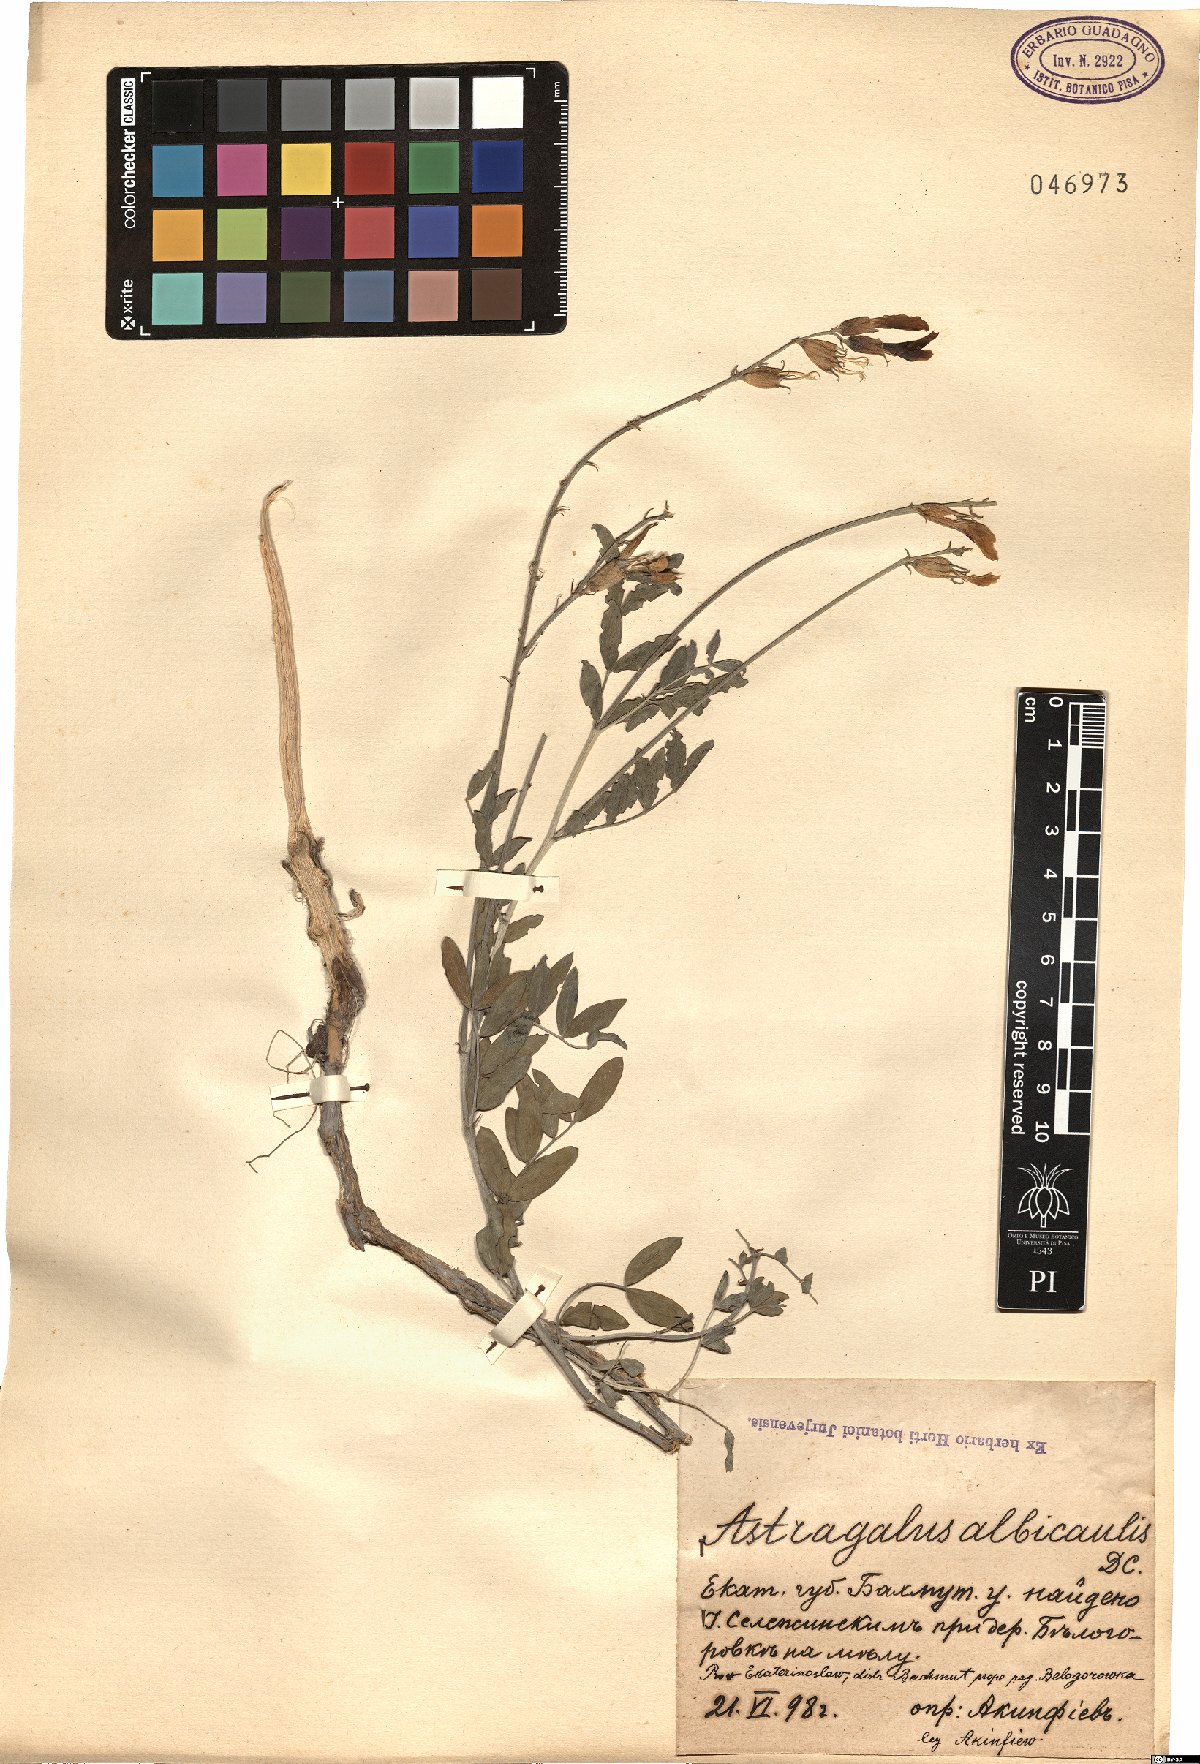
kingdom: Plantae
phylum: Tracheophyta
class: Magnoliopsida
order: Fabales
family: Fabaceae
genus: Astragalus
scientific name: Astragalus albicaulis
